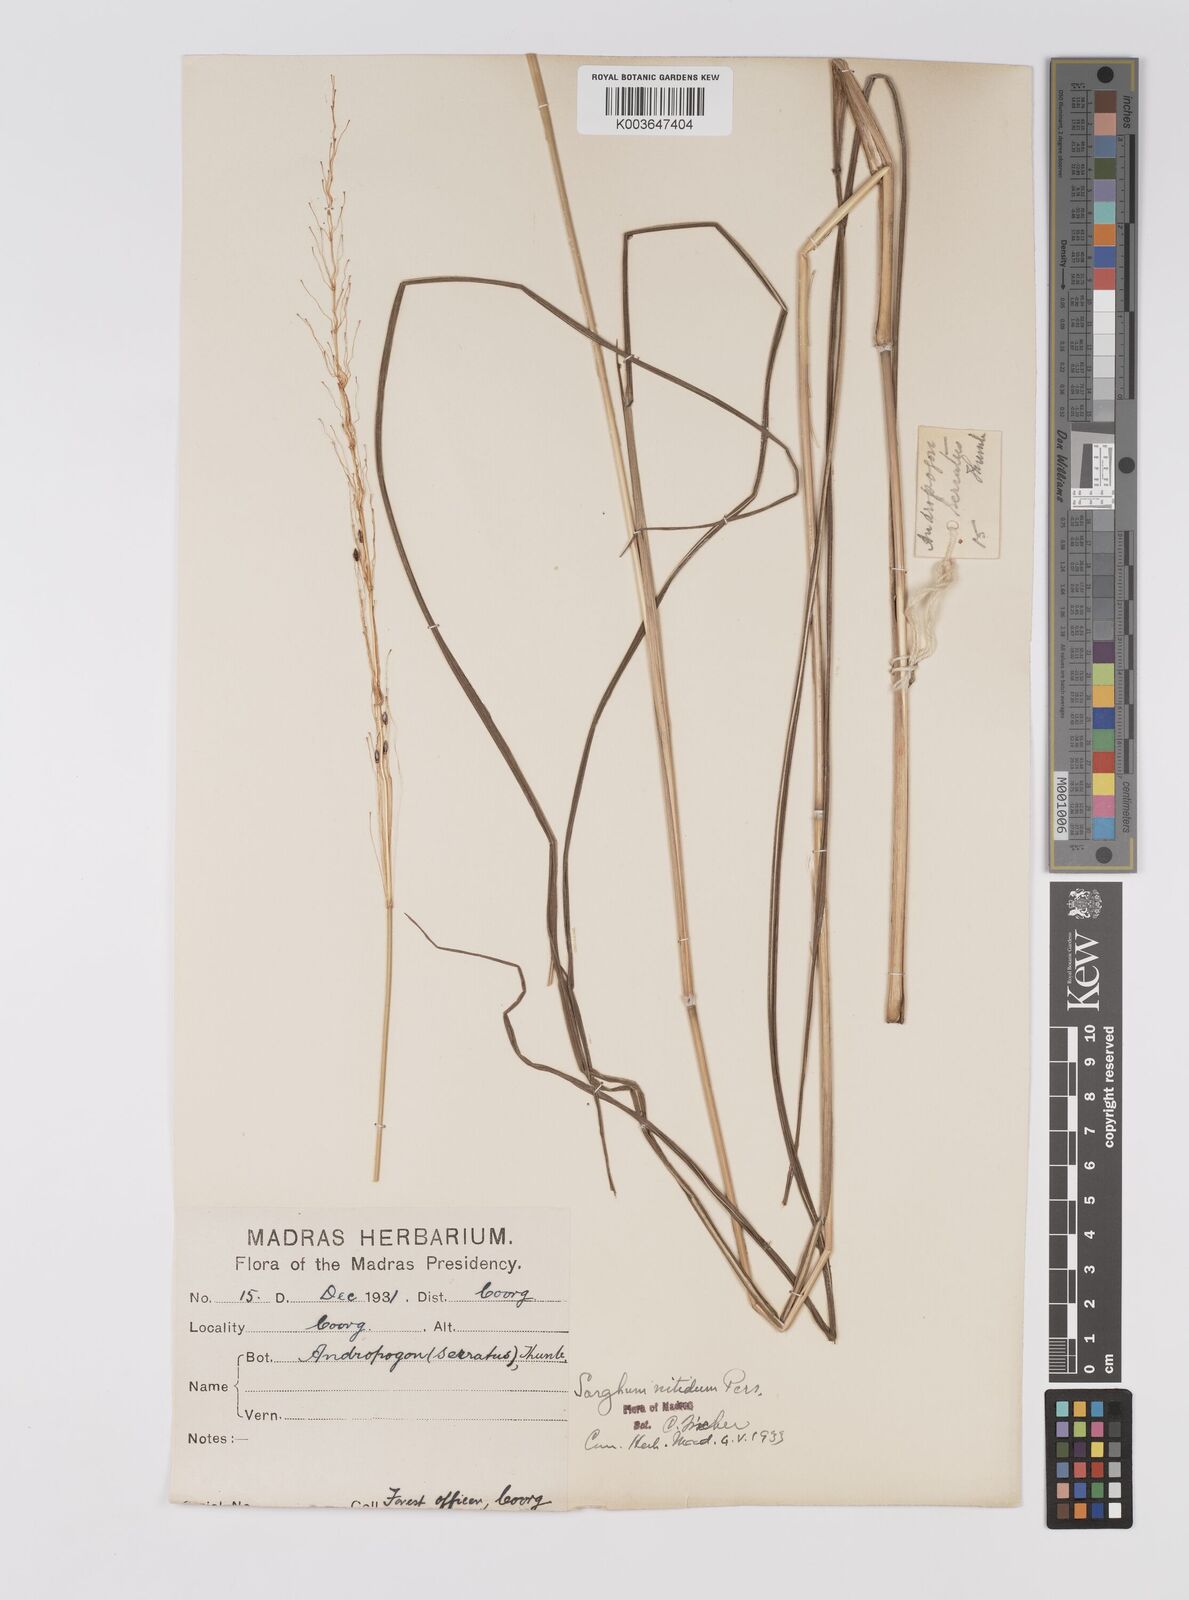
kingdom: Plantae
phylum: Tracheophyta
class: Liliopsida
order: Poales
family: Poaceae
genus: Sorghum
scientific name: Sorghum nitidum
